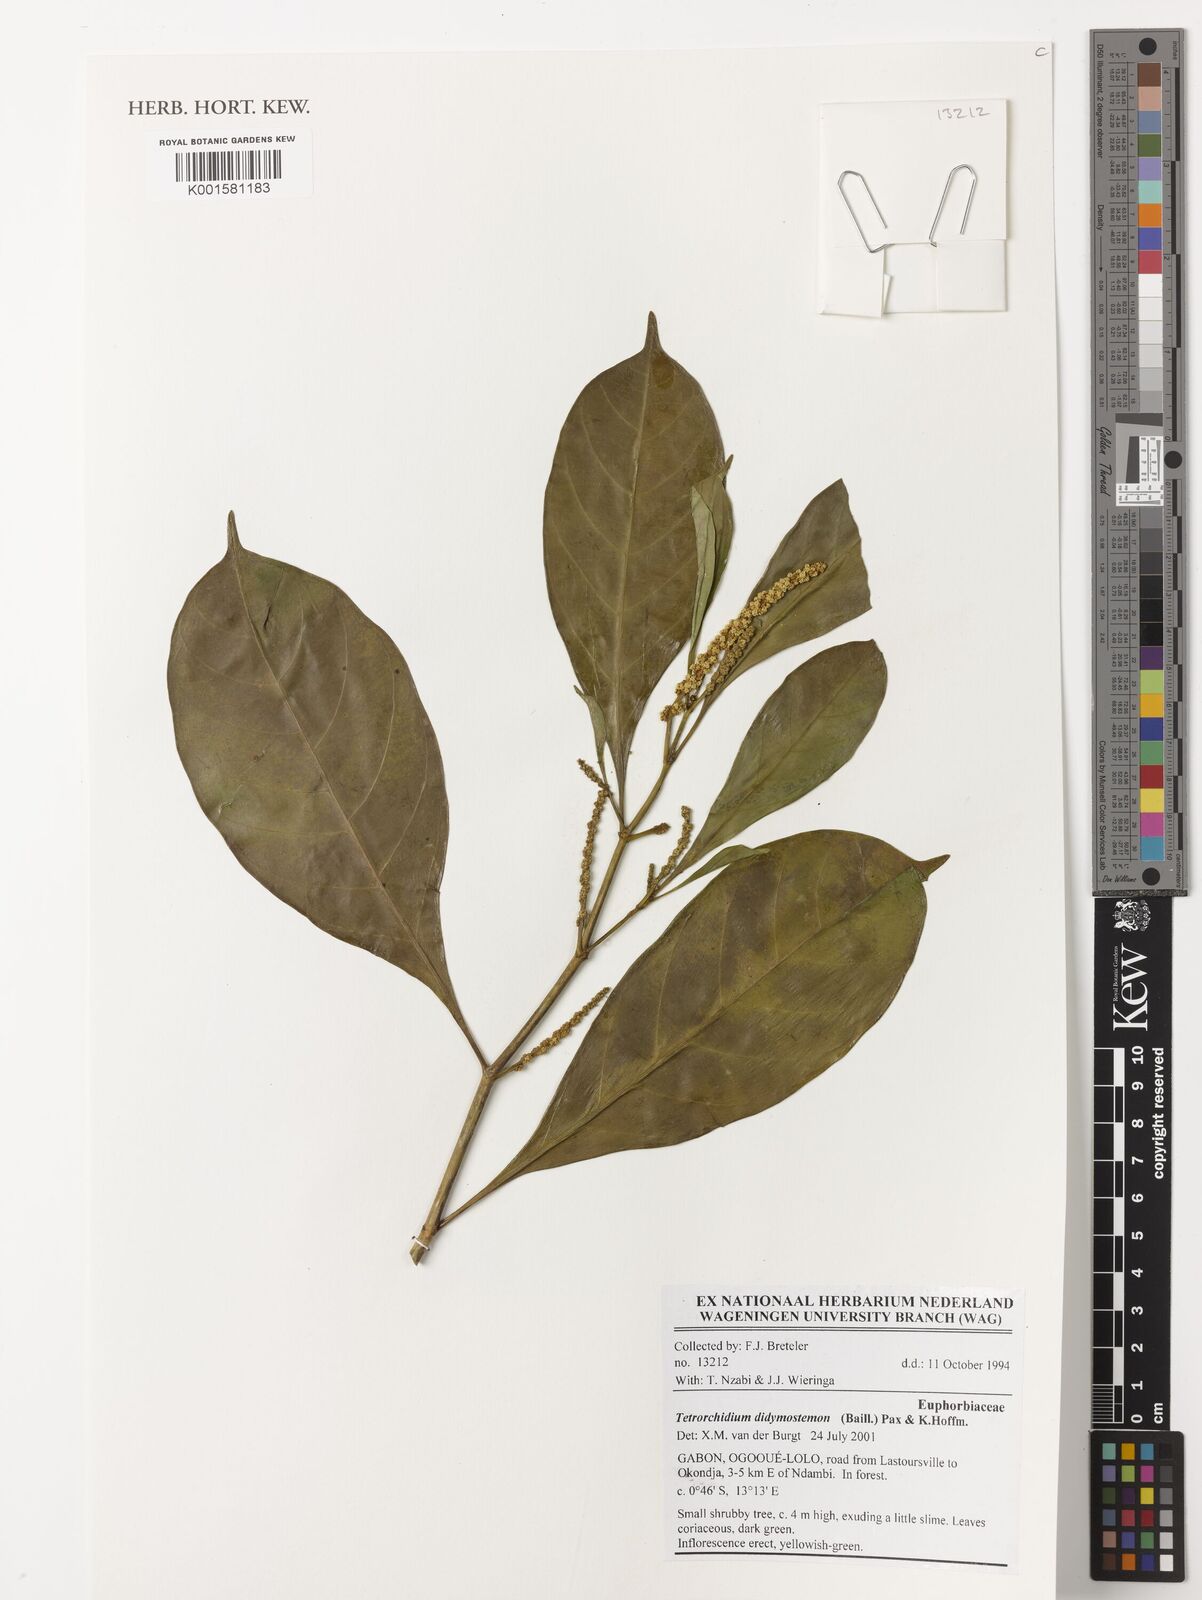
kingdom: Plantae
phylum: Tracheophyta
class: Magnoliopsida
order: Malpighiales
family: Euphorbiaceae
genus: Tetrorchidium
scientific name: Tetrorchidium didymostemon
